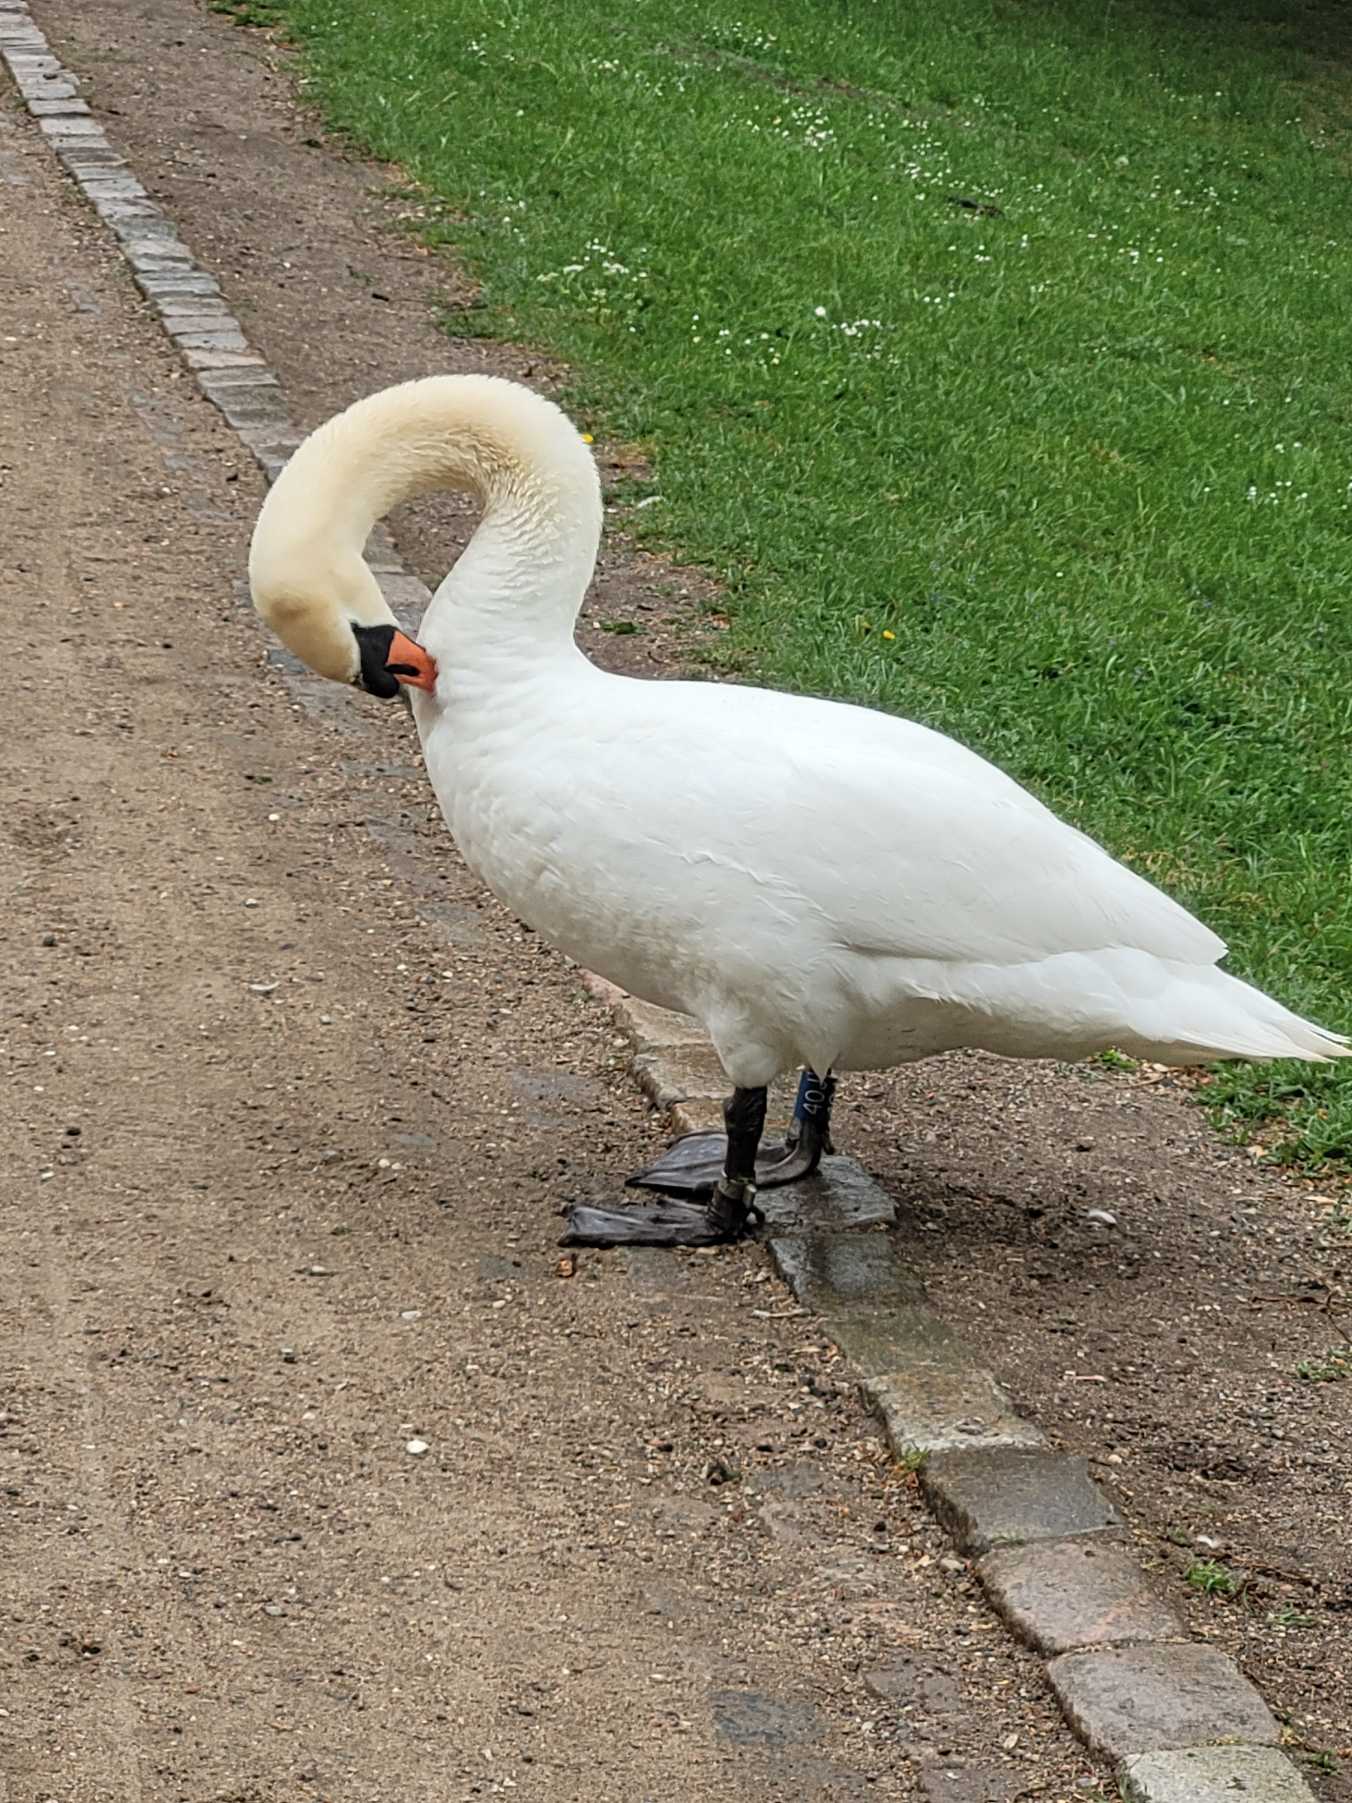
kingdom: Animalia
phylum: Chordata
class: Aves
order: Anseriformes
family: Anatidae
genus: Cygnus
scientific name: Cygnus olor
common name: Knopsvane
